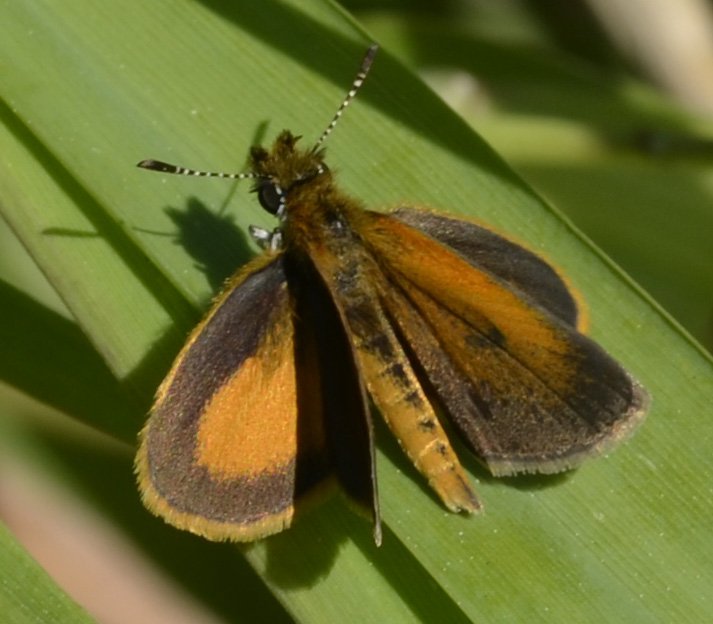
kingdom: Animalia
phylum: Arthropoda
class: Insecta
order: Lepidoptera
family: Hesperiidae
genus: Ancyloxypha
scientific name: Ancyloxypha numitor
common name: Least Skipper
